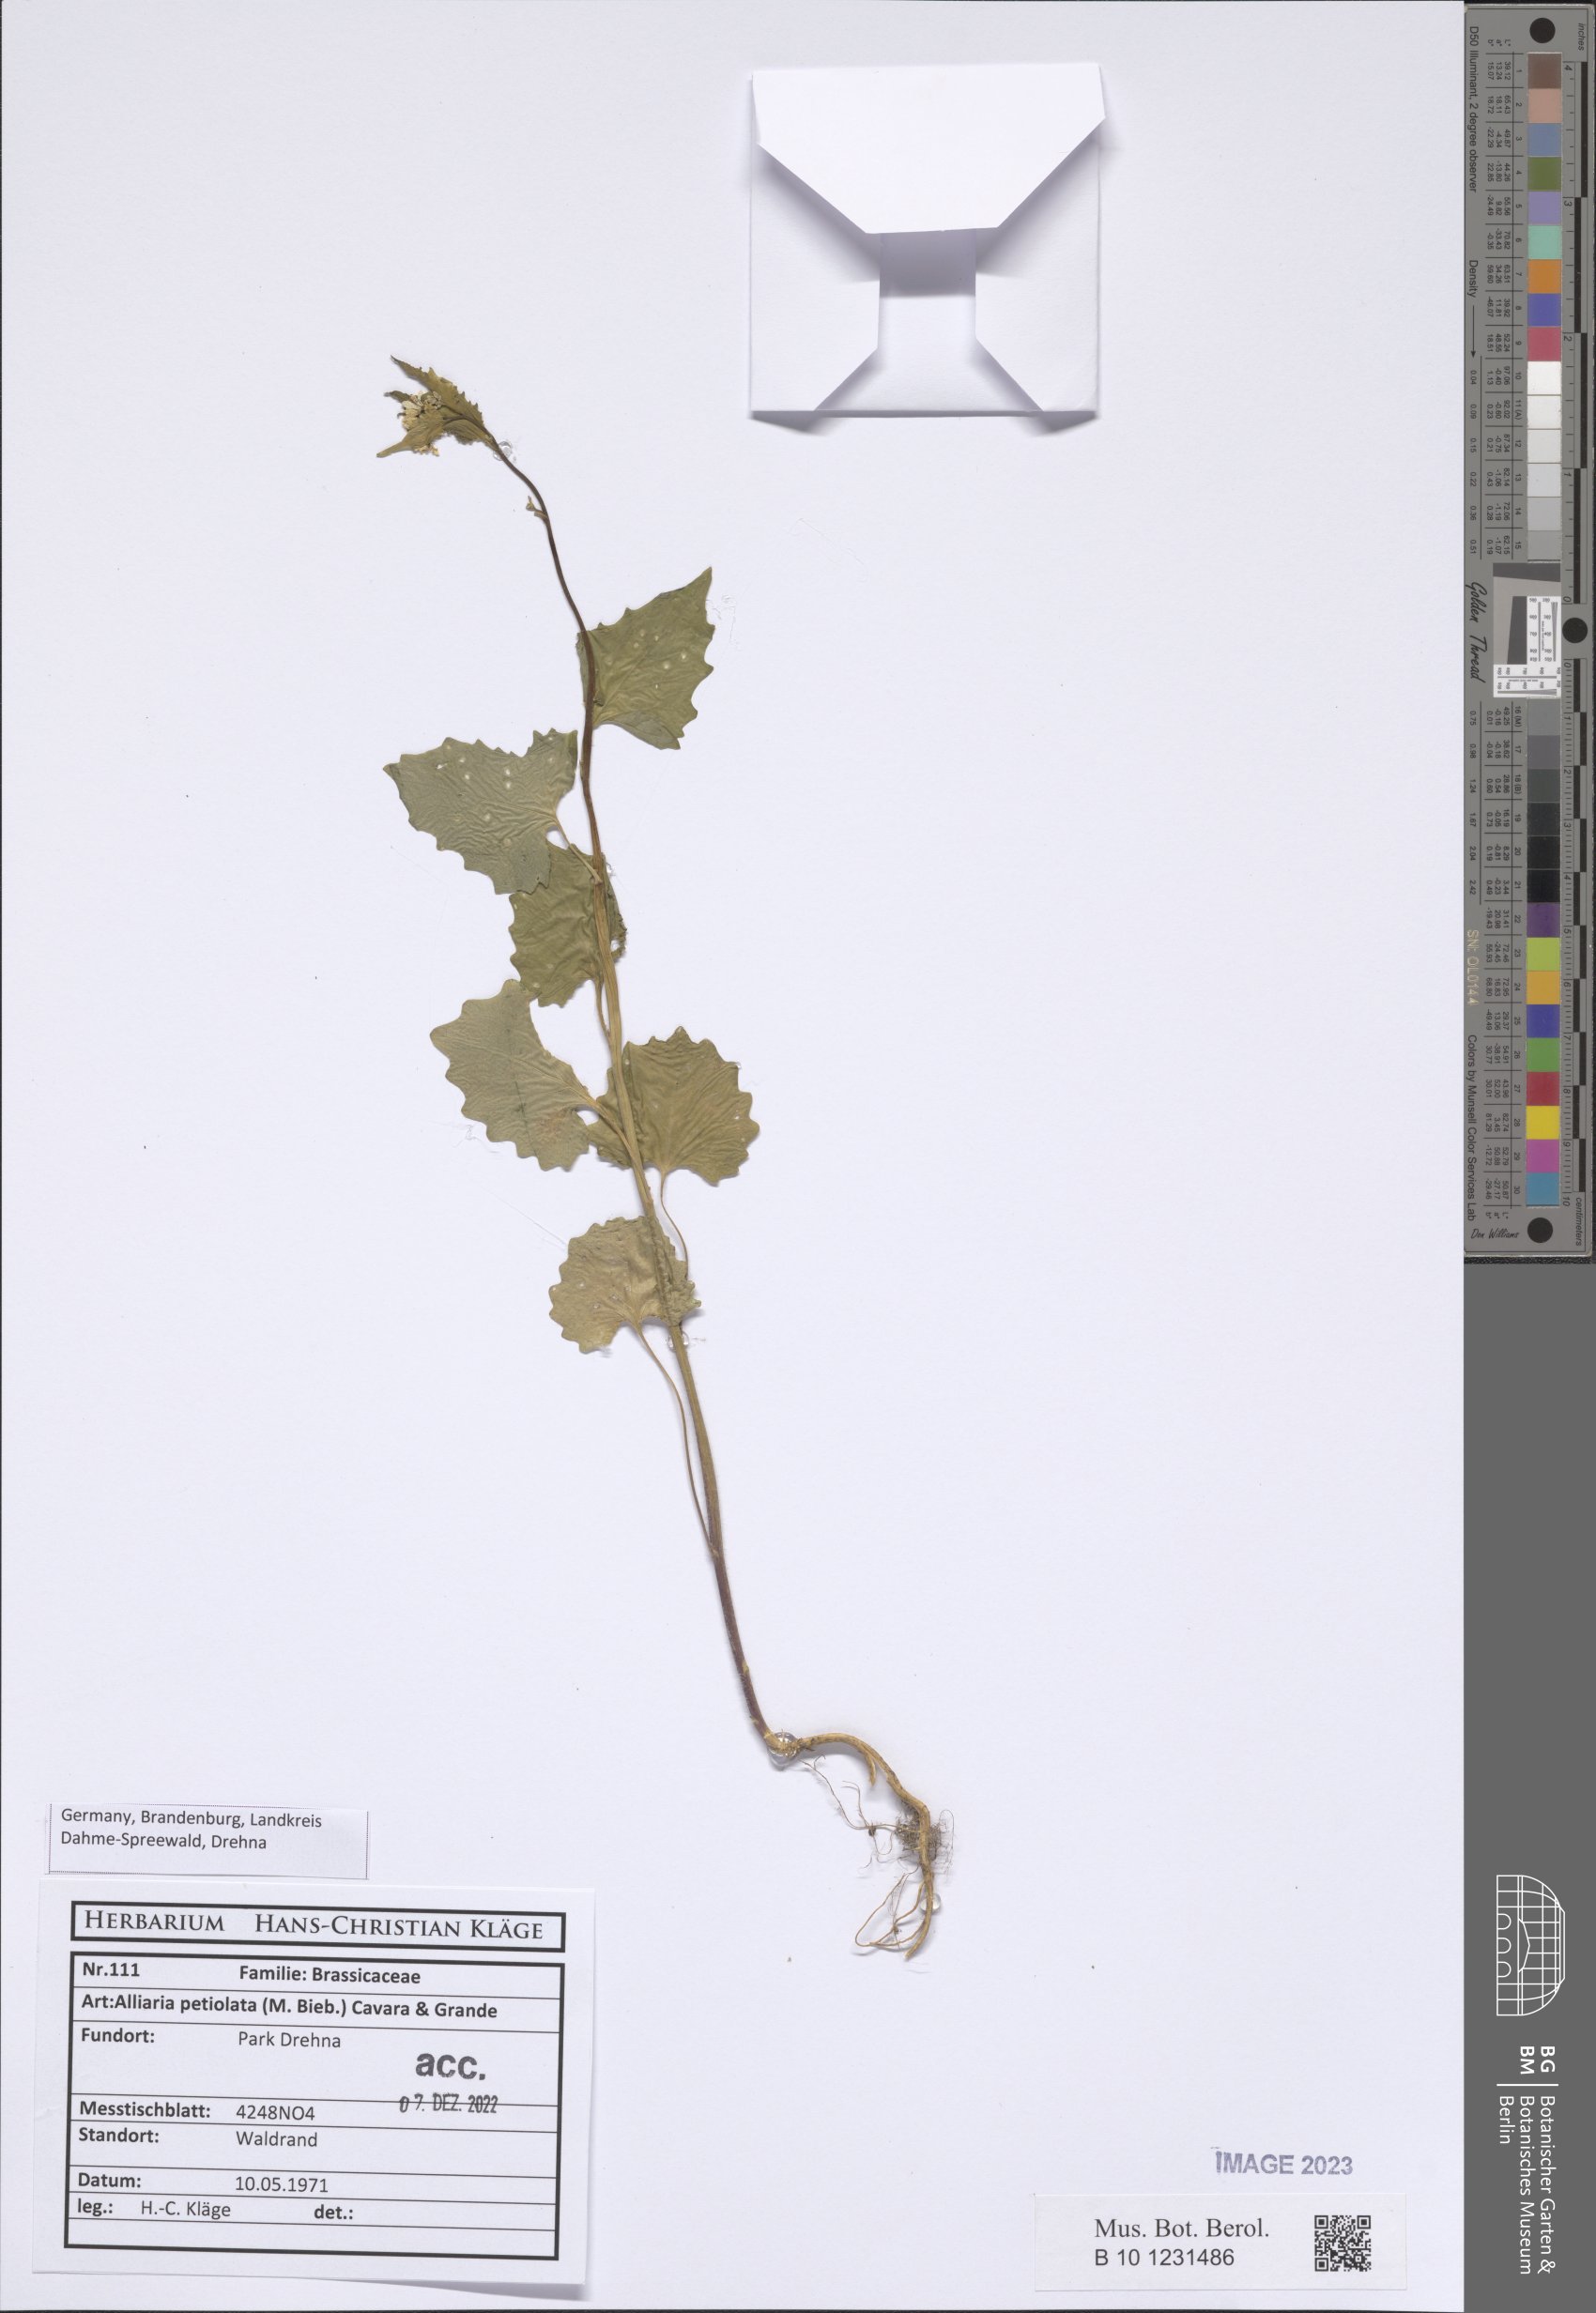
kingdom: Plantae
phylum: Tracheophyta
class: Magnoliopsida
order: Brassicales
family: Brassicaceae
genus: Alliaria
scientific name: Alliaria petiolata
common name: Garlic mustard
